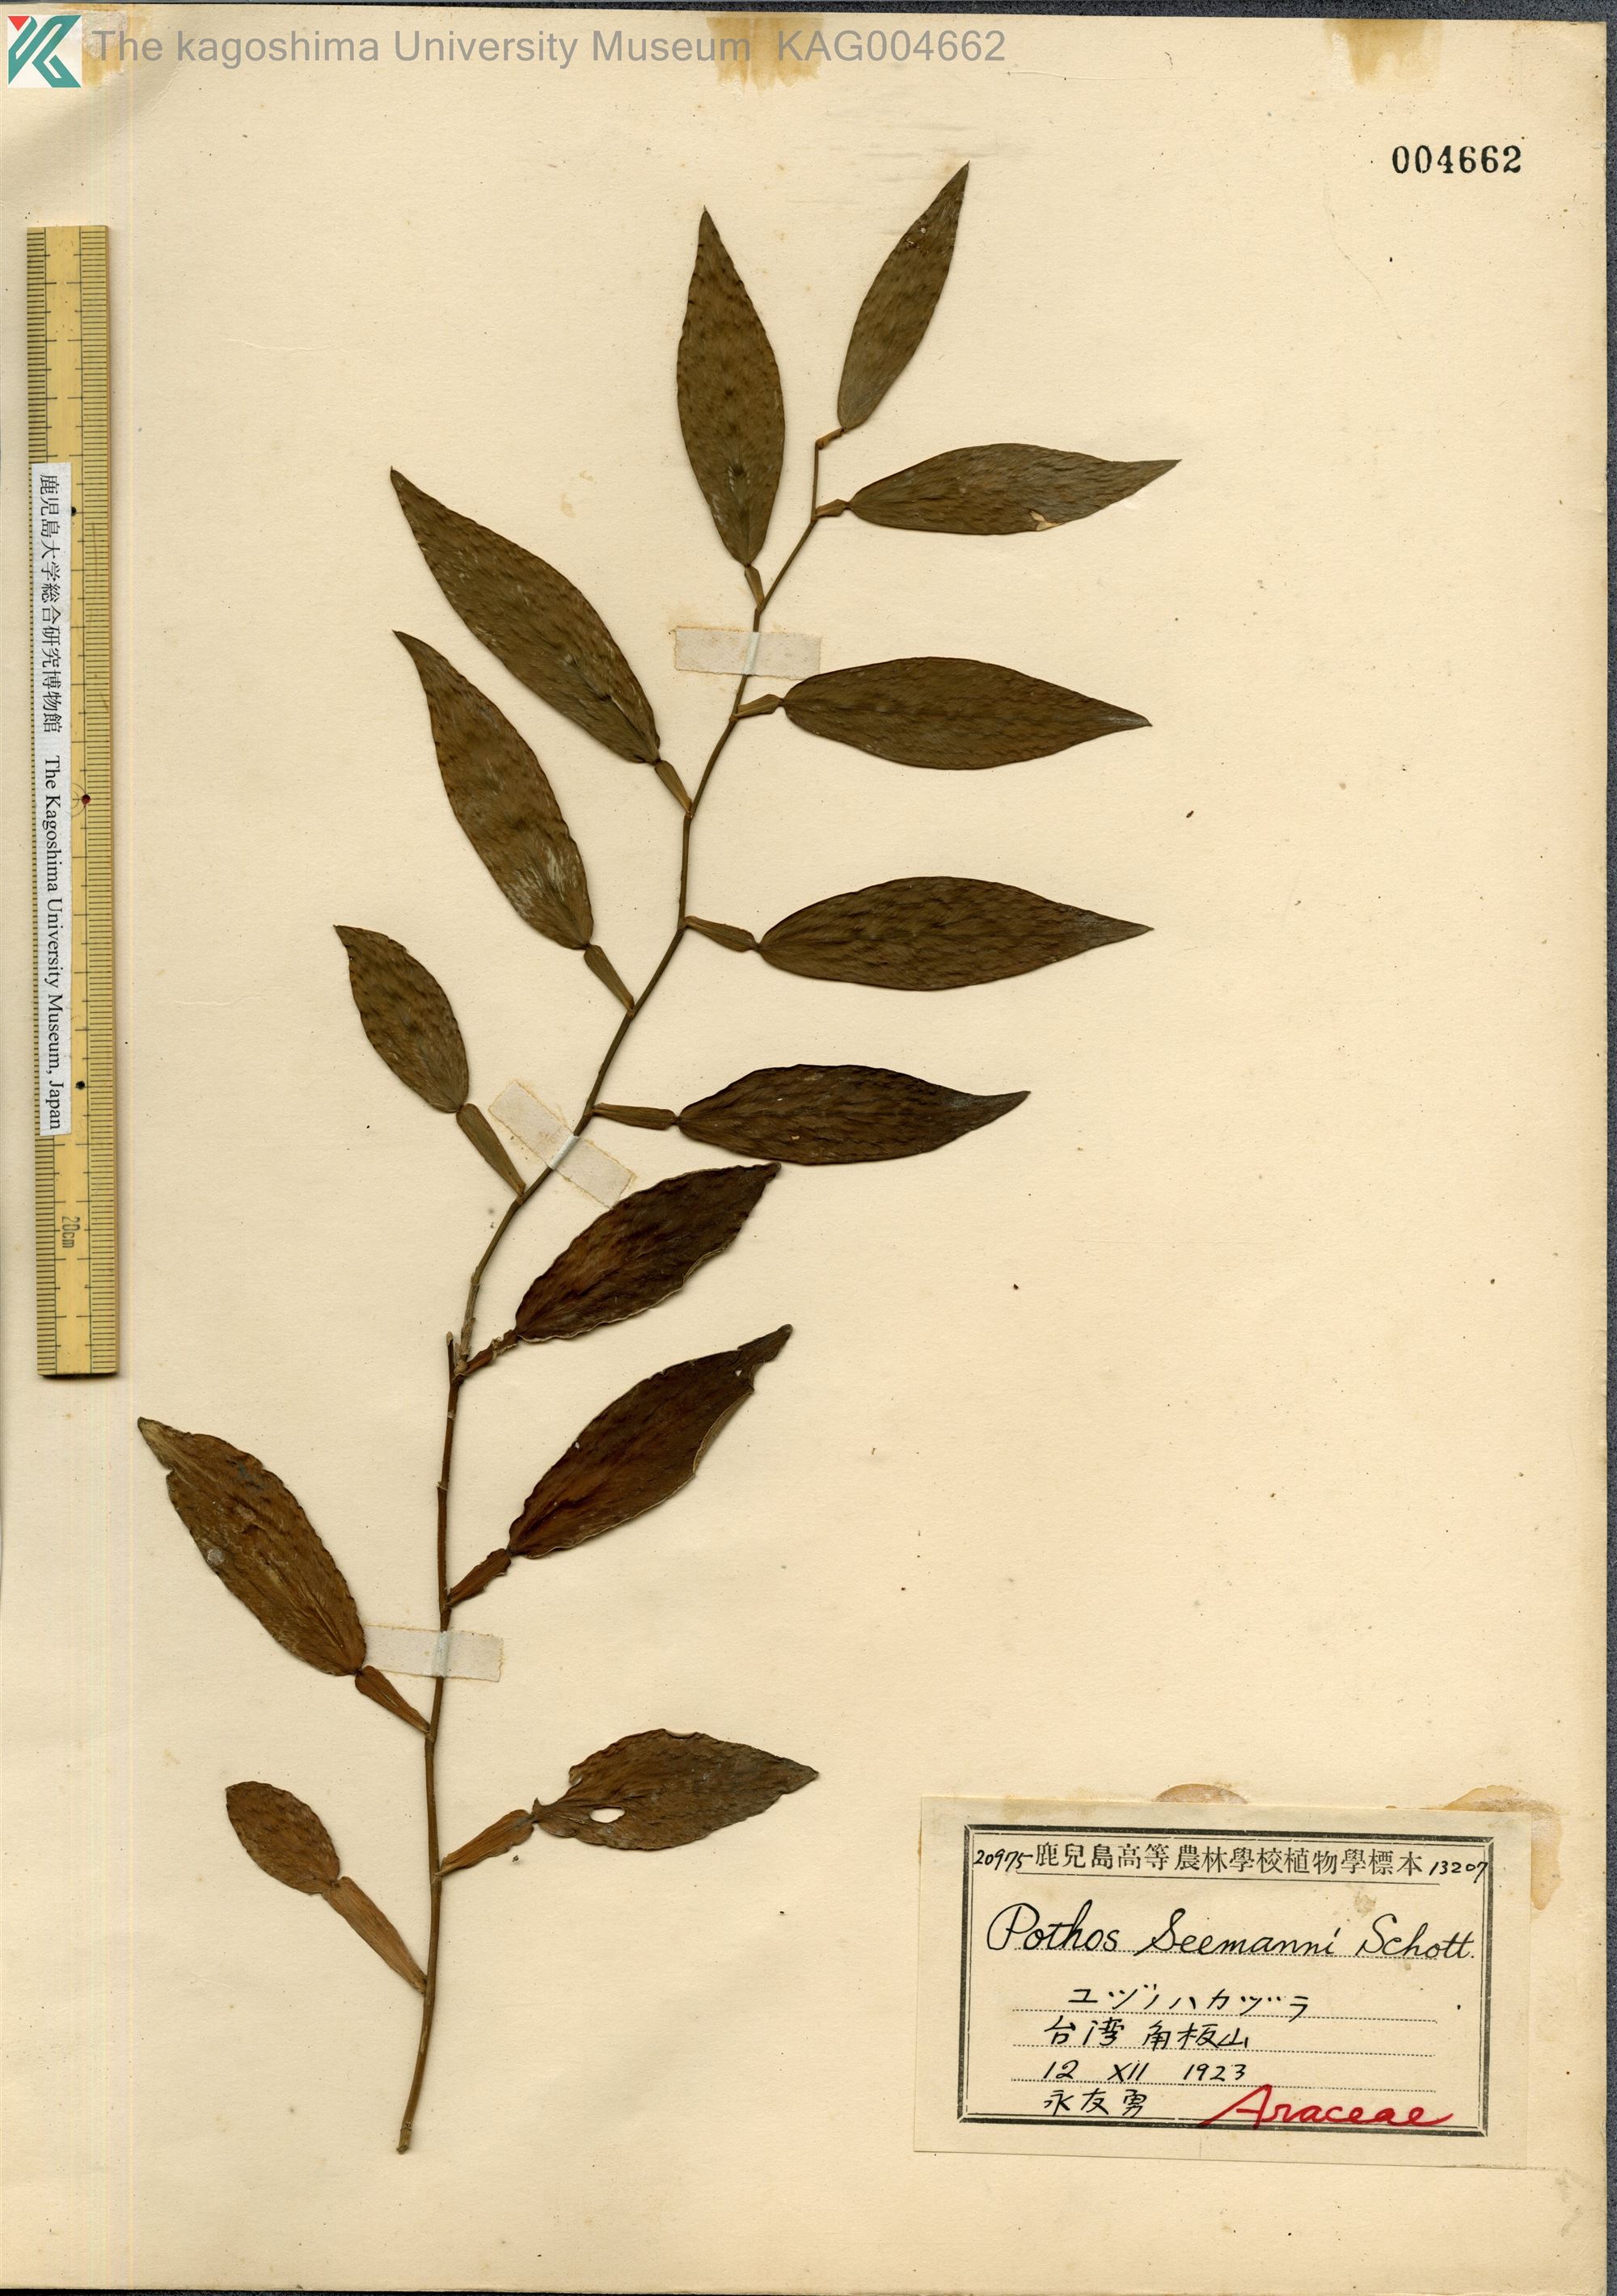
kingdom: Plantae
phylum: Tracheophyta
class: Liliopsida
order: Alismatales
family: Araceae
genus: Pothos
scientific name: Pothos chinensis
